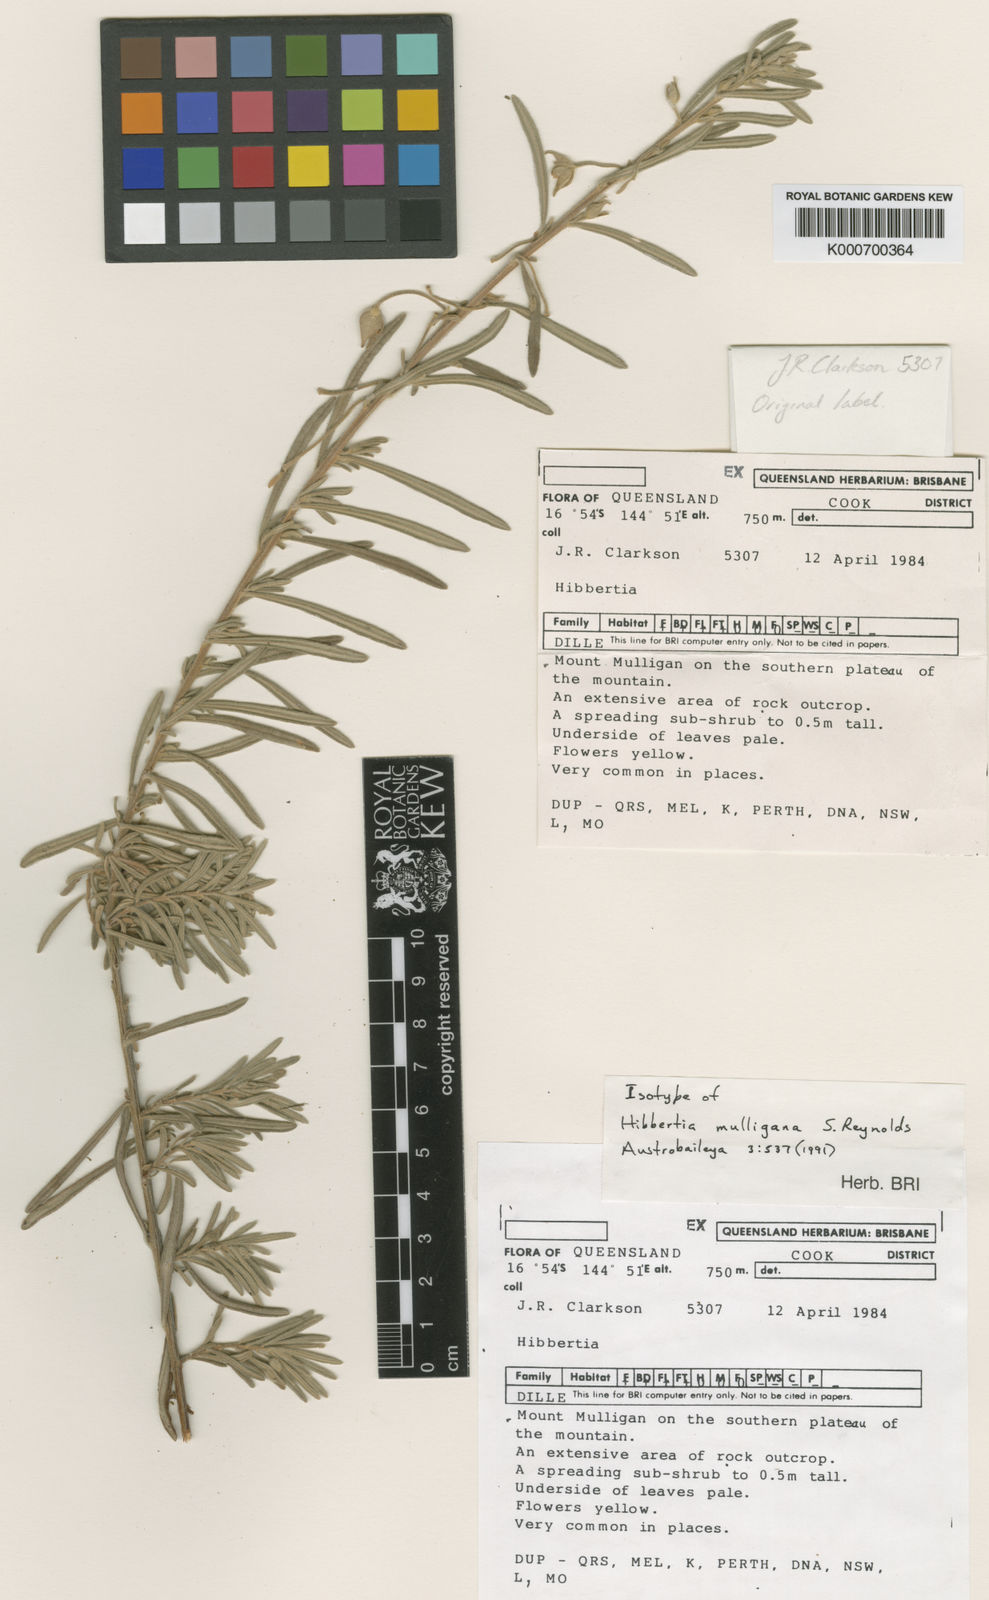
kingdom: Plantae
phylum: Tracheophyta
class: Magnoliopsida
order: Dilleniales
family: Dilleniaceae
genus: Hibbertia
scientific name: Hibbertia mulligana
